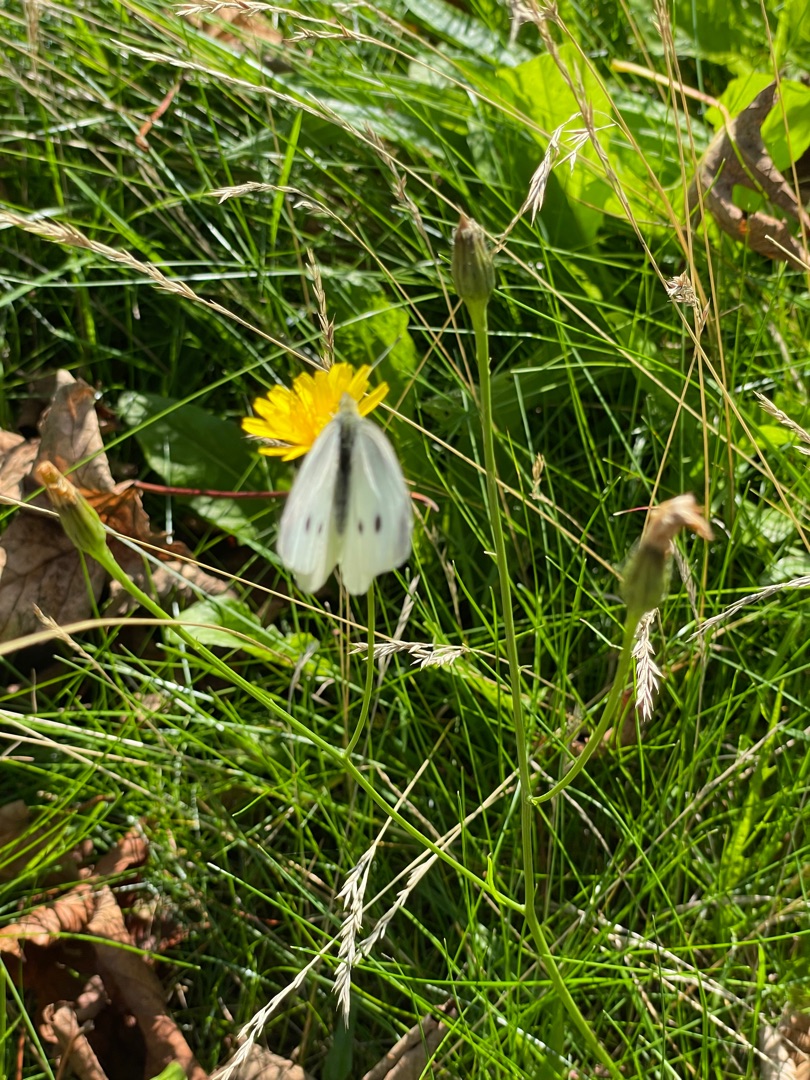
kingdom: Animalia
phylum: Arthropoda
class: Insecta
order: Lepidoptera
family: Pieridae
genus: Pieris
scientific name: Pieris rapae
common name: Lille kålsommerfugl
